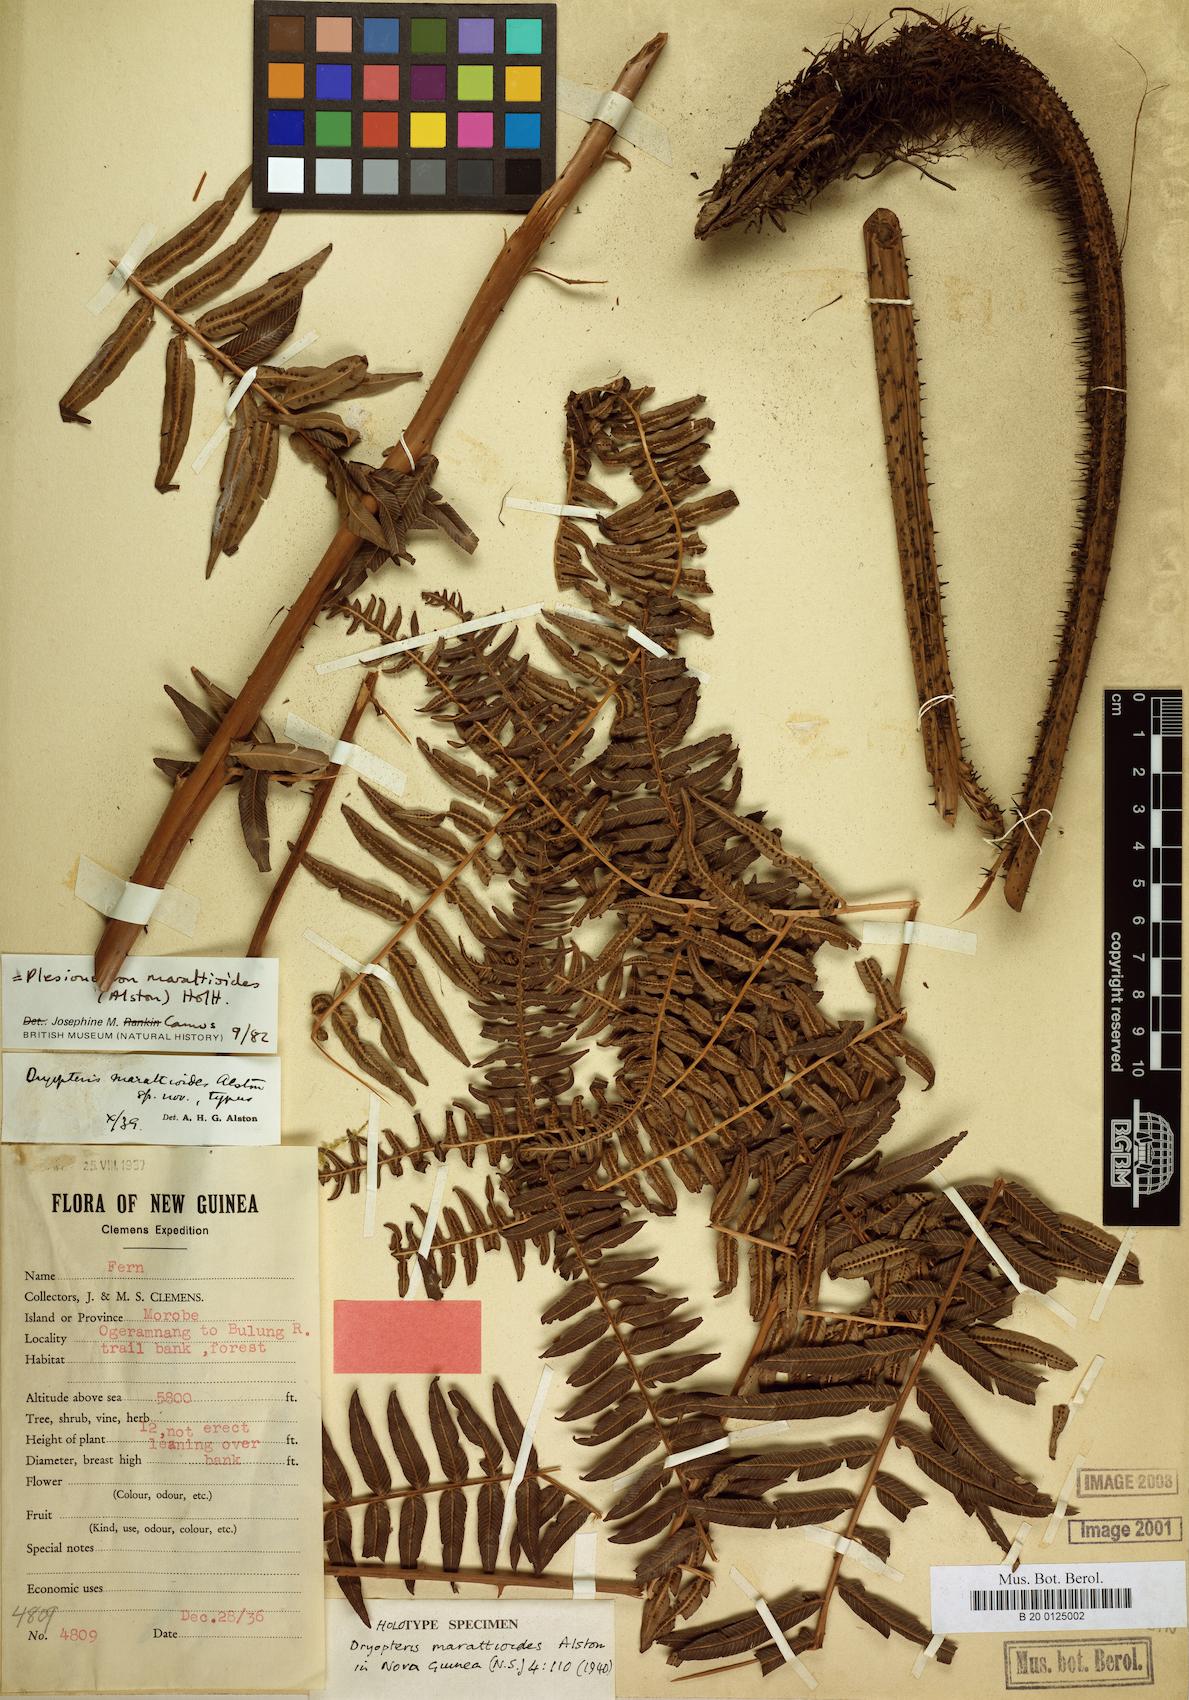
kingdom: Plantae
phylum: Tracheophyta
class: Polypodiopsida
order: Polypodiales
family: Thelypteridaceae
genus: Chingia
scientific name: Chingia marattioides
